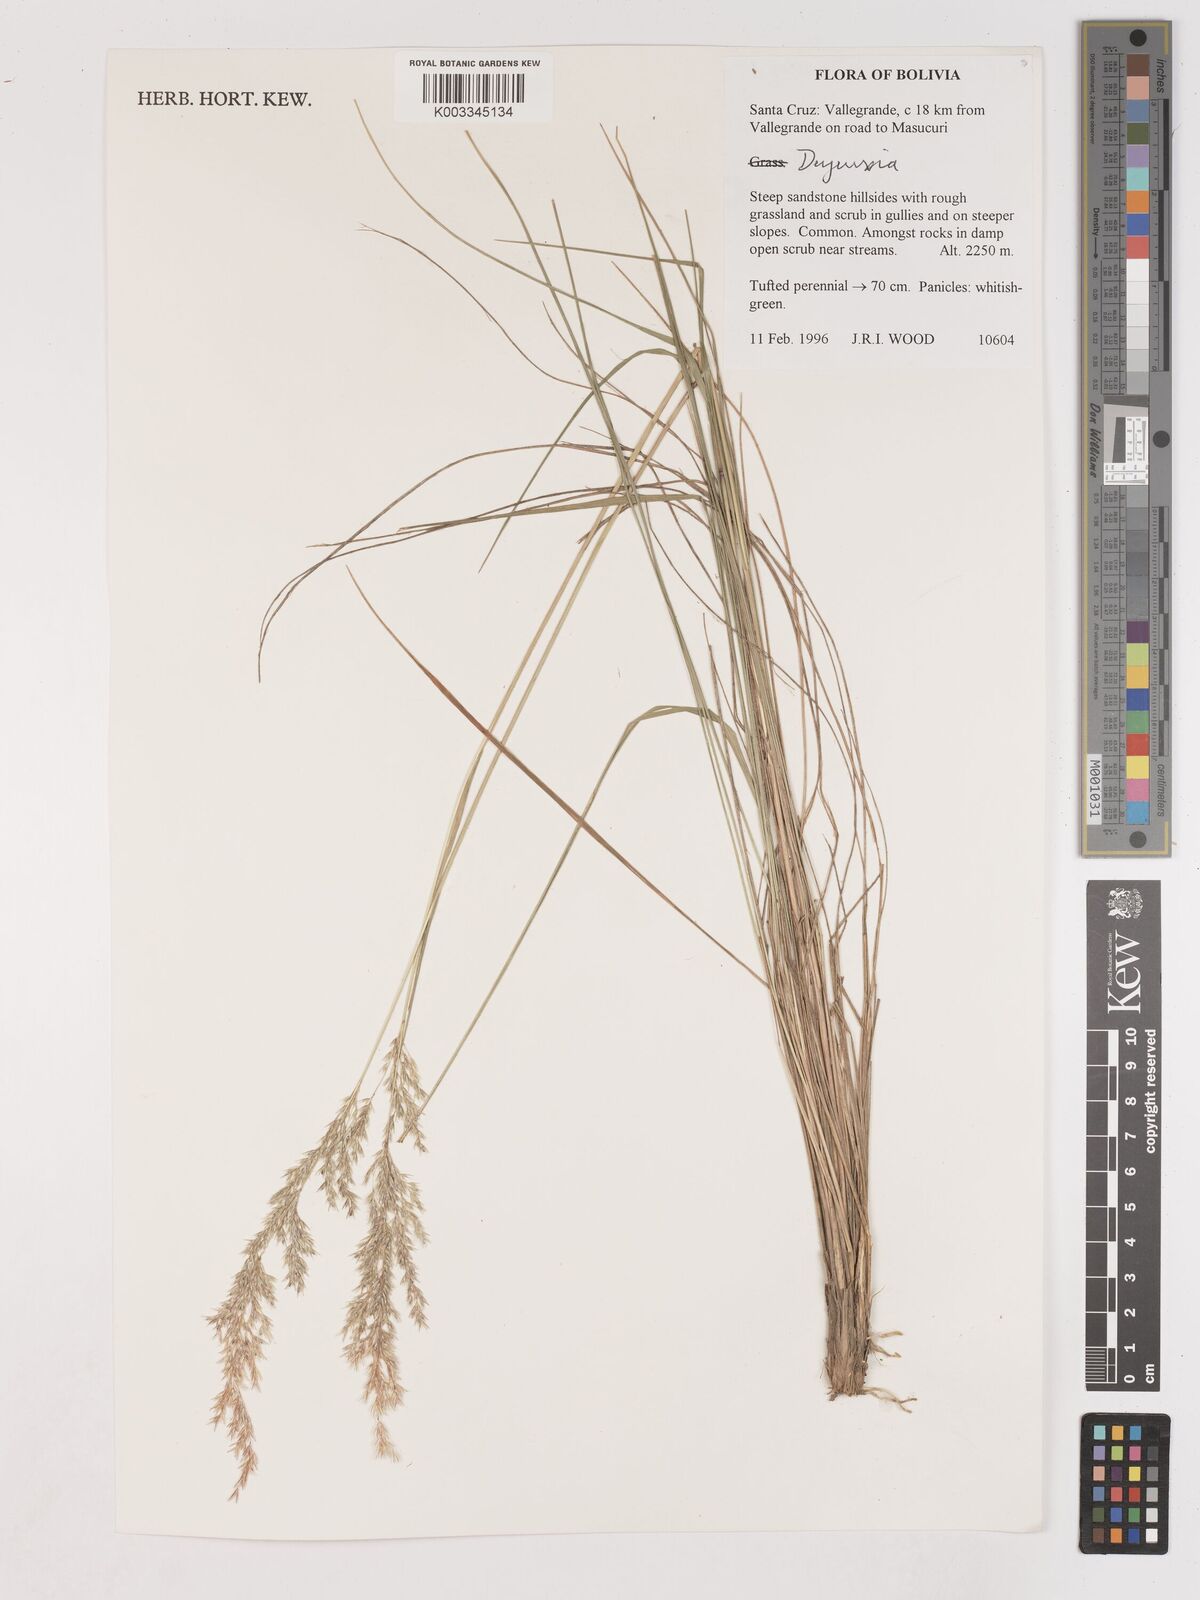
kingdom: Plantae
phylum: Tracheophyta
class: Liliopsida
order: Poales
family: Poaceae
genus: Calamagrostis
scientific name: Calamagrostis
